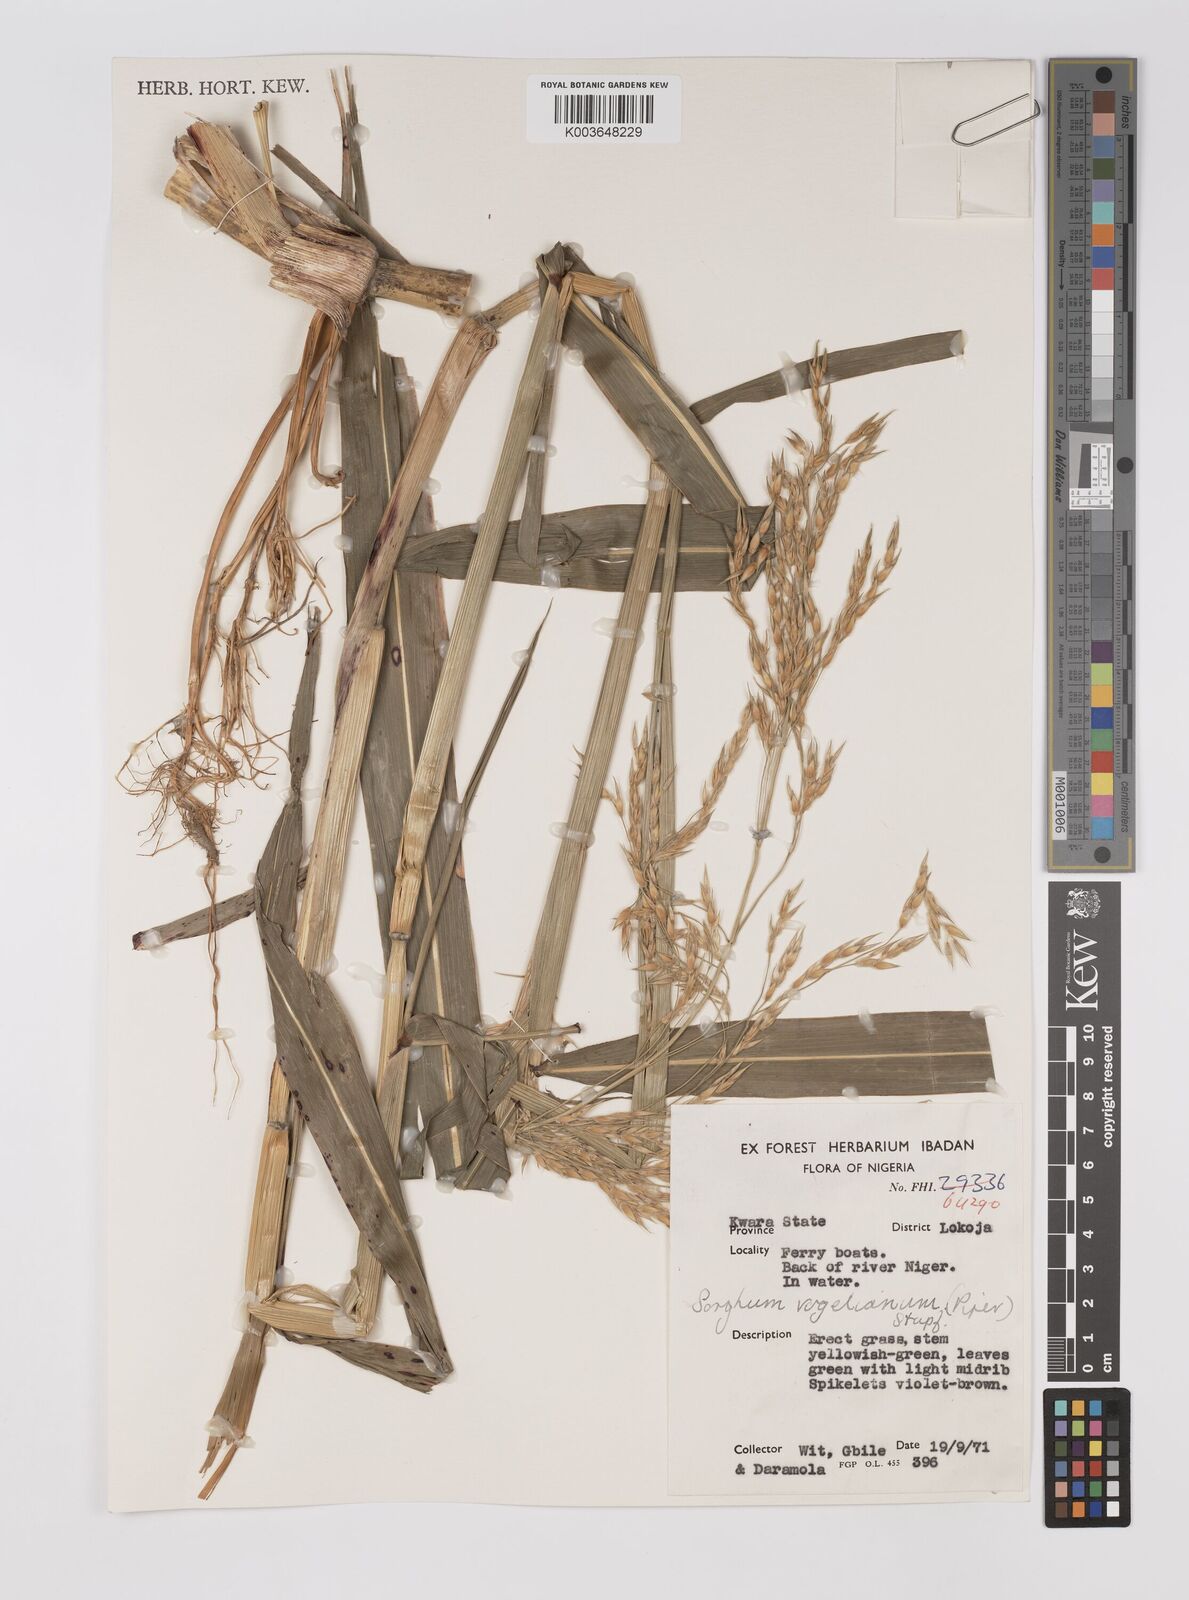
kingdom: Plantae
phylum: Tracheophyta
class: Liliopsida
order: Poales
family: Poaceae
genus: Sorghum
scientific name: Sorghum arundinaceum
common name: Sorghum
